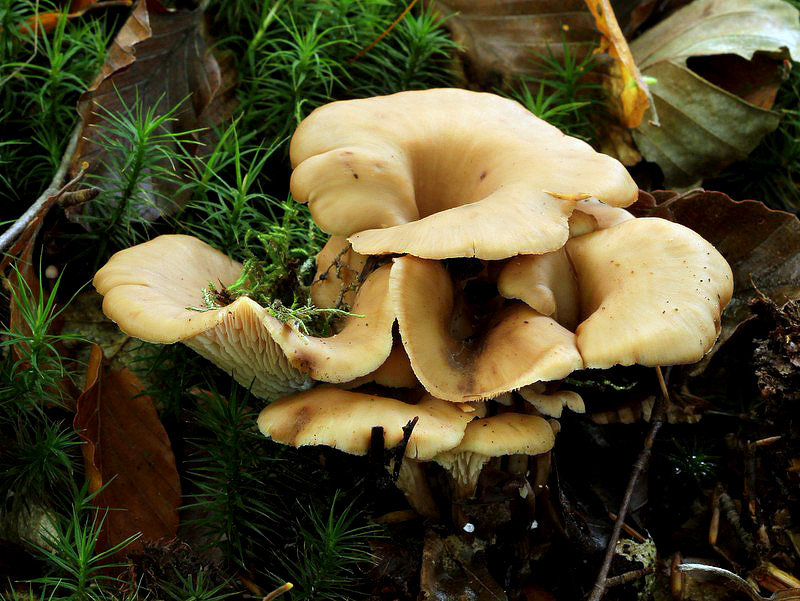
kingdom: Fungi
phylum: Basidiomycota
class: Agaricomycetes
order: Russulales
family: Auriscalpiaceae
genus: Lentinellus
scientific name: Lentinellus cochleatus
